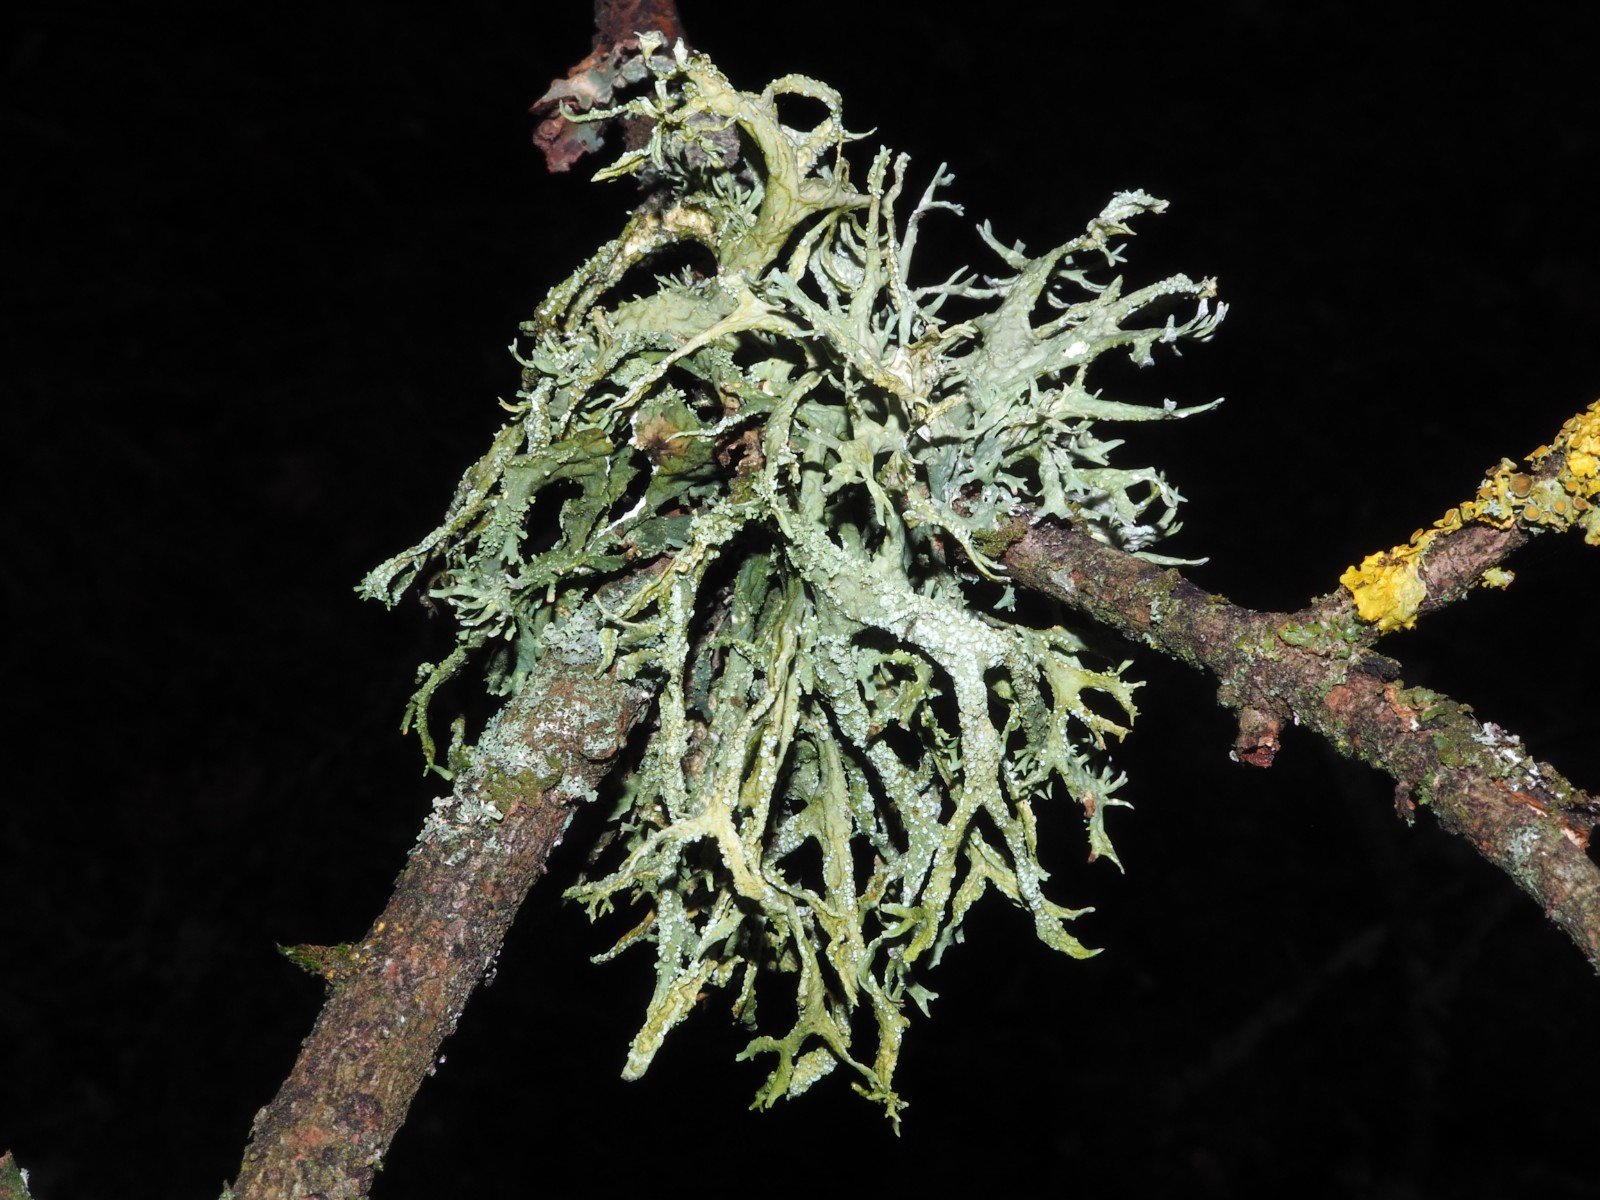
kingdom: Fungi
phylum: Ascomycota
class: Lecanoromycetes
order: Lecanorales
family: Parmeliaceae
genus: Evernia
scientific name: Evernia prunastri
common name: almindelig slåenlav
